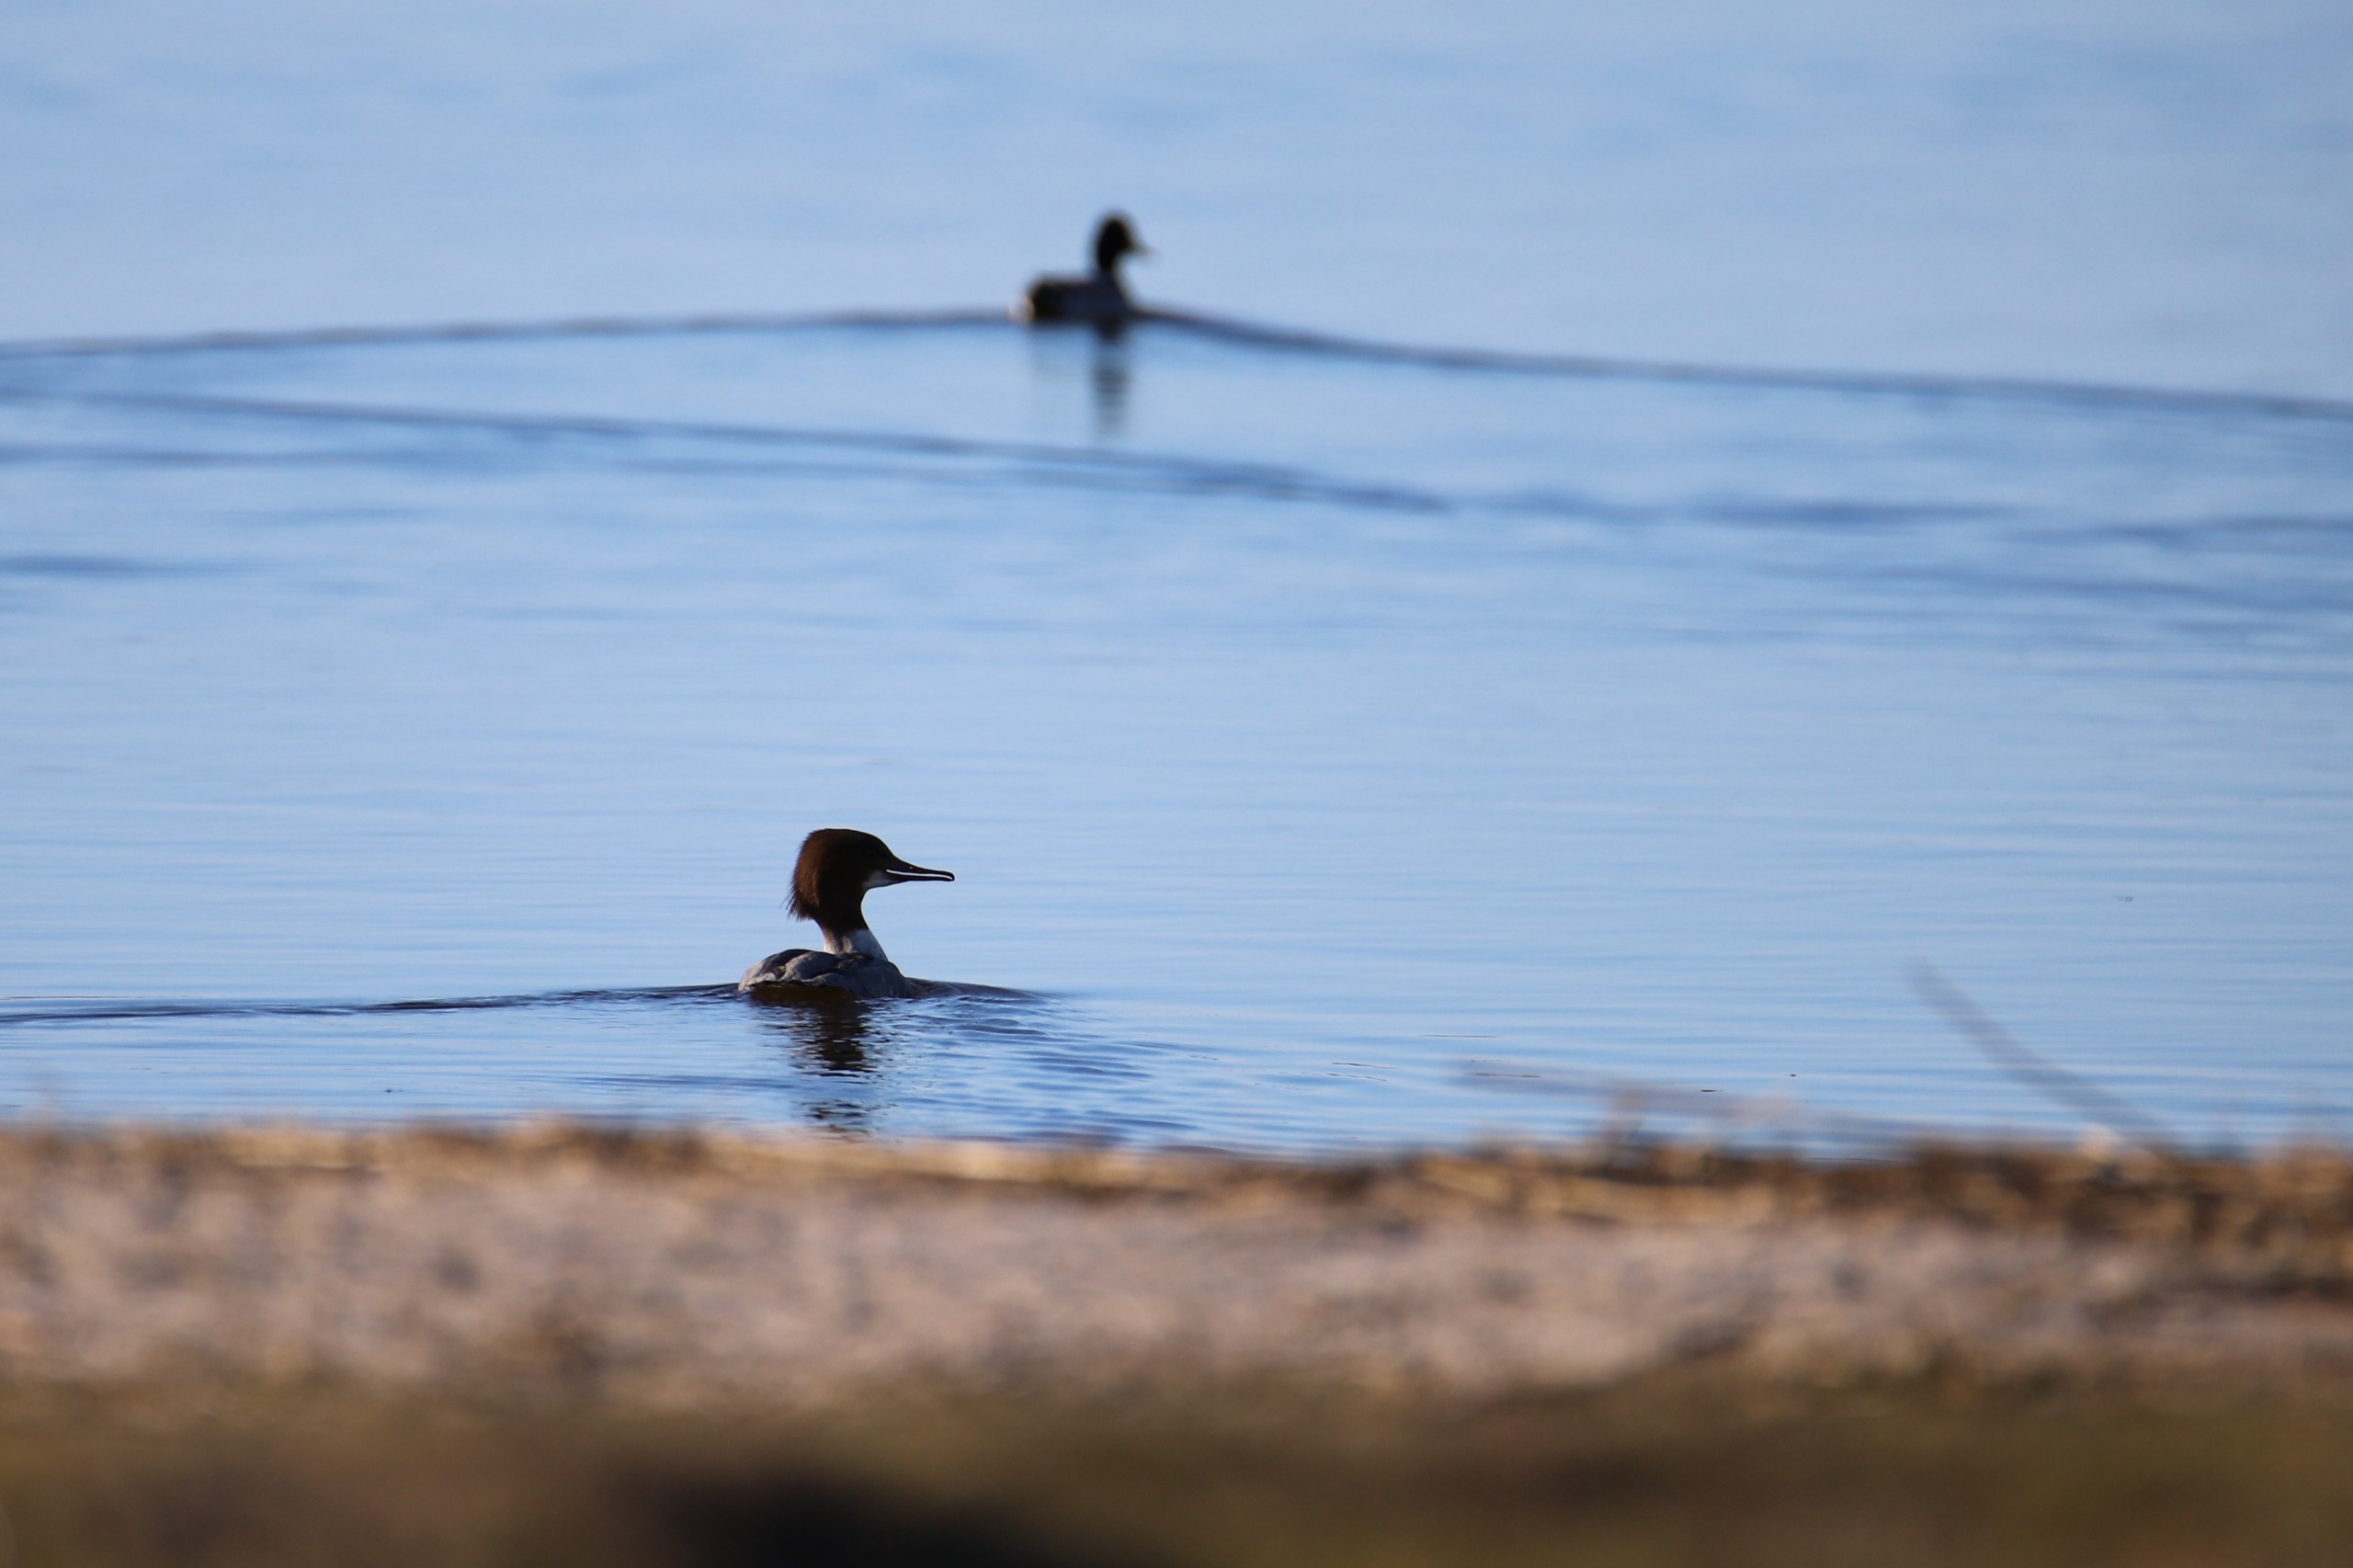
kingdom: Animalia
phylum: Chordata
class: Aves
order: Anseriformes
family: Anatidae
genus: Mergus
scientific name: Mergus merganser
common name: Stor skallesluger
